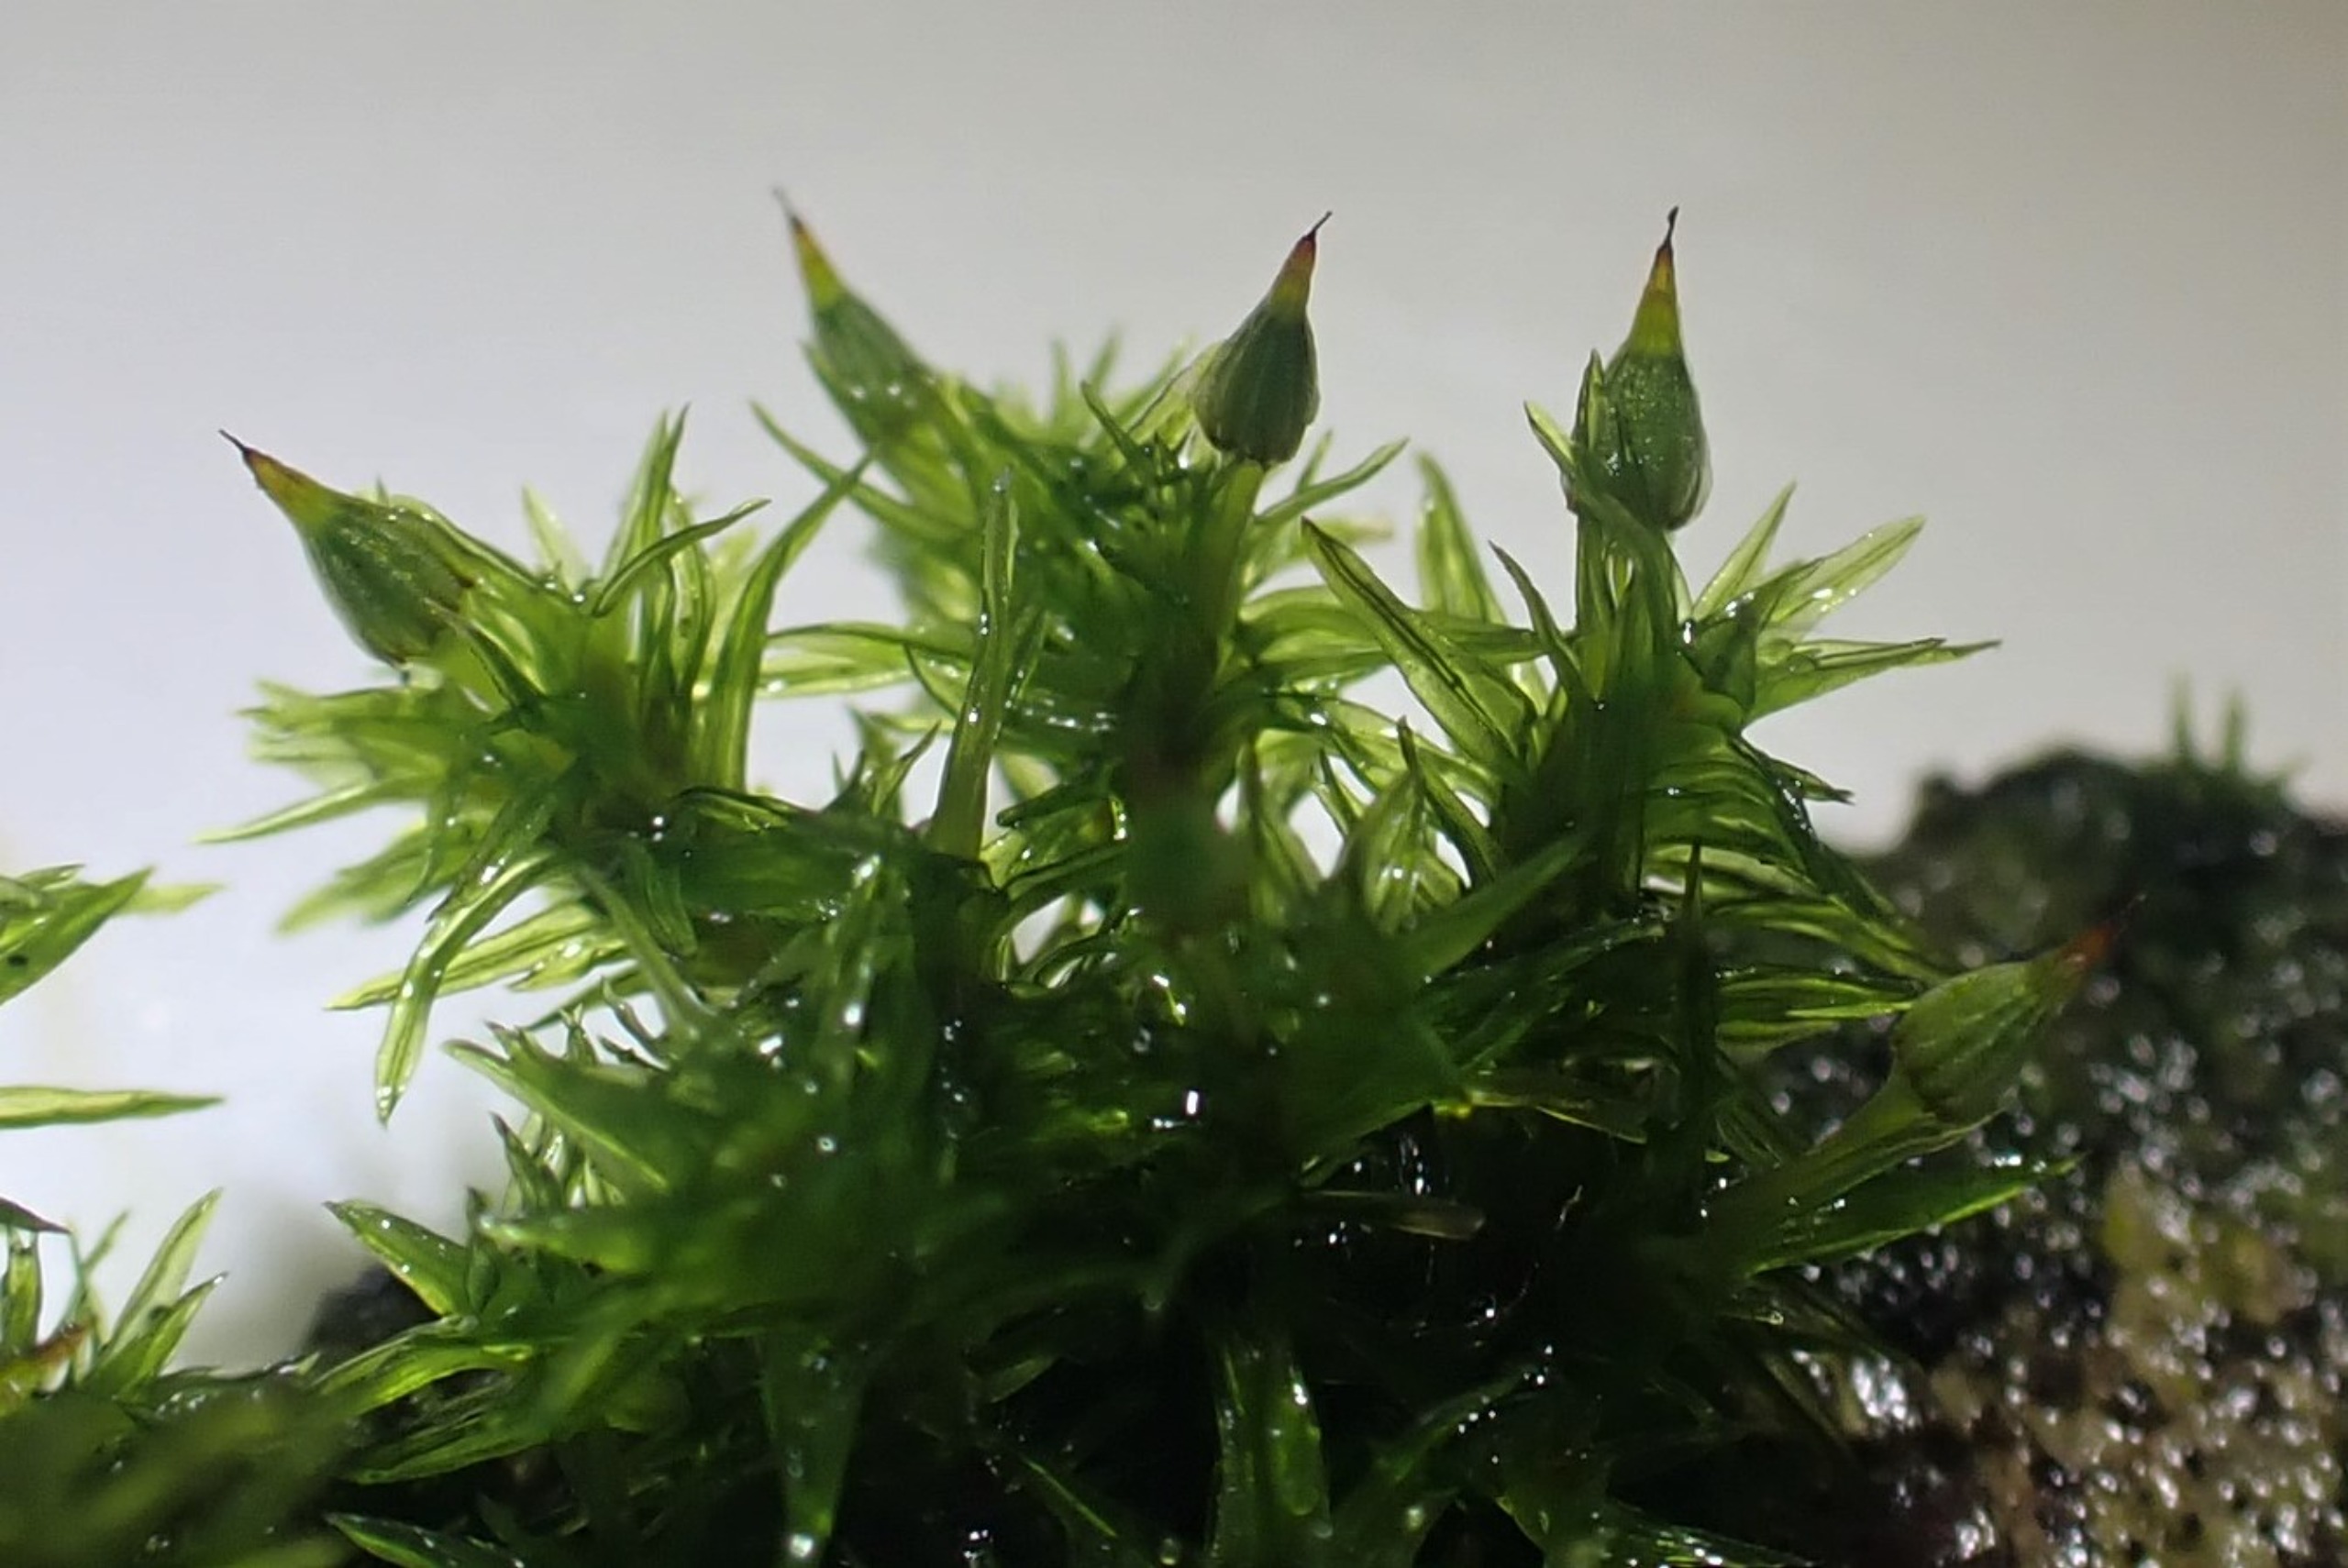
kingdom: Plantae
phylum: Bryophyta
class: Bryopsida
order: Orthotrichales
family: Orthotrichaceae
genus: Orthotrichum
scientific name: Orthotrichum pulchellum
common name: Smuk furehætte
